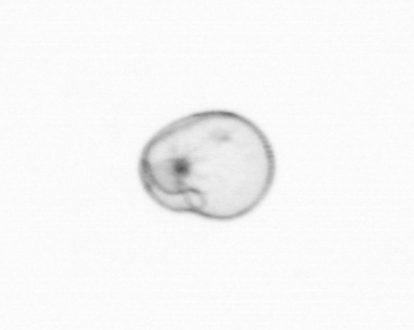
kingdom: Chromista
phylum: Myzozoa
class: Dinophyceae
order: Noctilucales
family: Noctilucaceae
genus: Noctiluca
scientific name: Noctiluca scintillans
